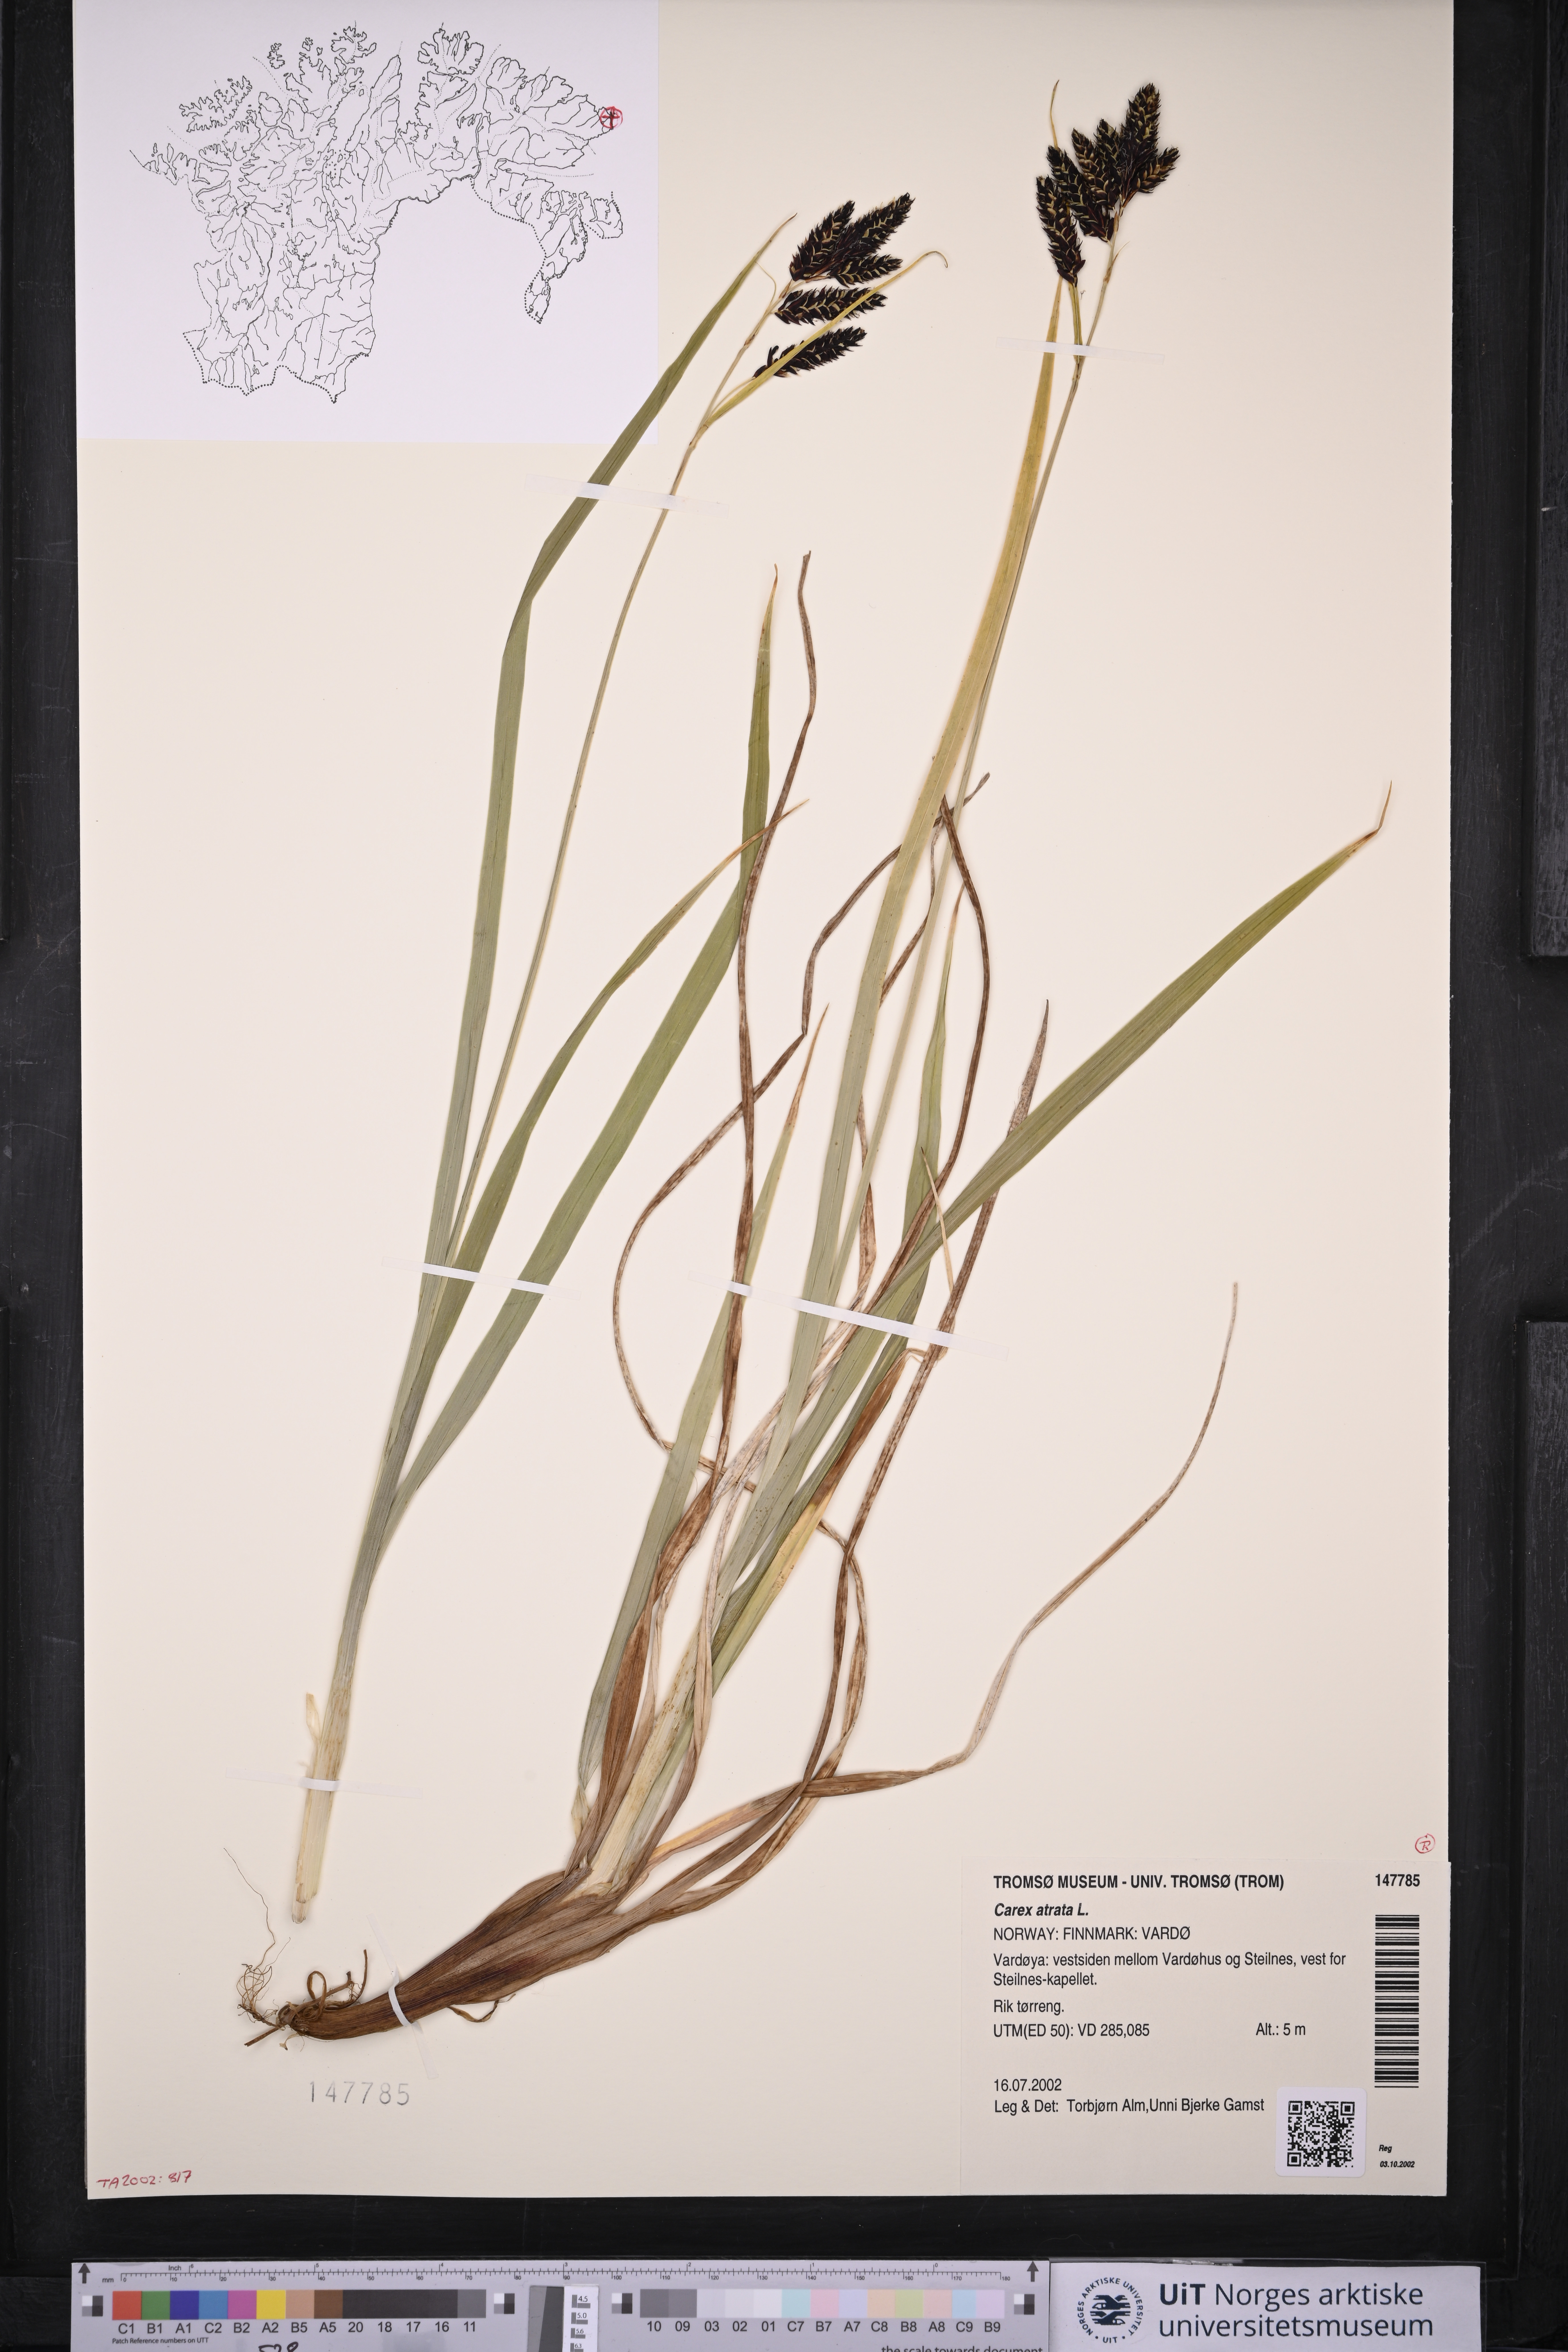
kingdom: Plantae
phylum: Tracheophyta
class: Liliopsida
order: Poales
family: Cyperaceae
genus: Carex
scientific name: Carex atrata
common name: Black alpine sedge
